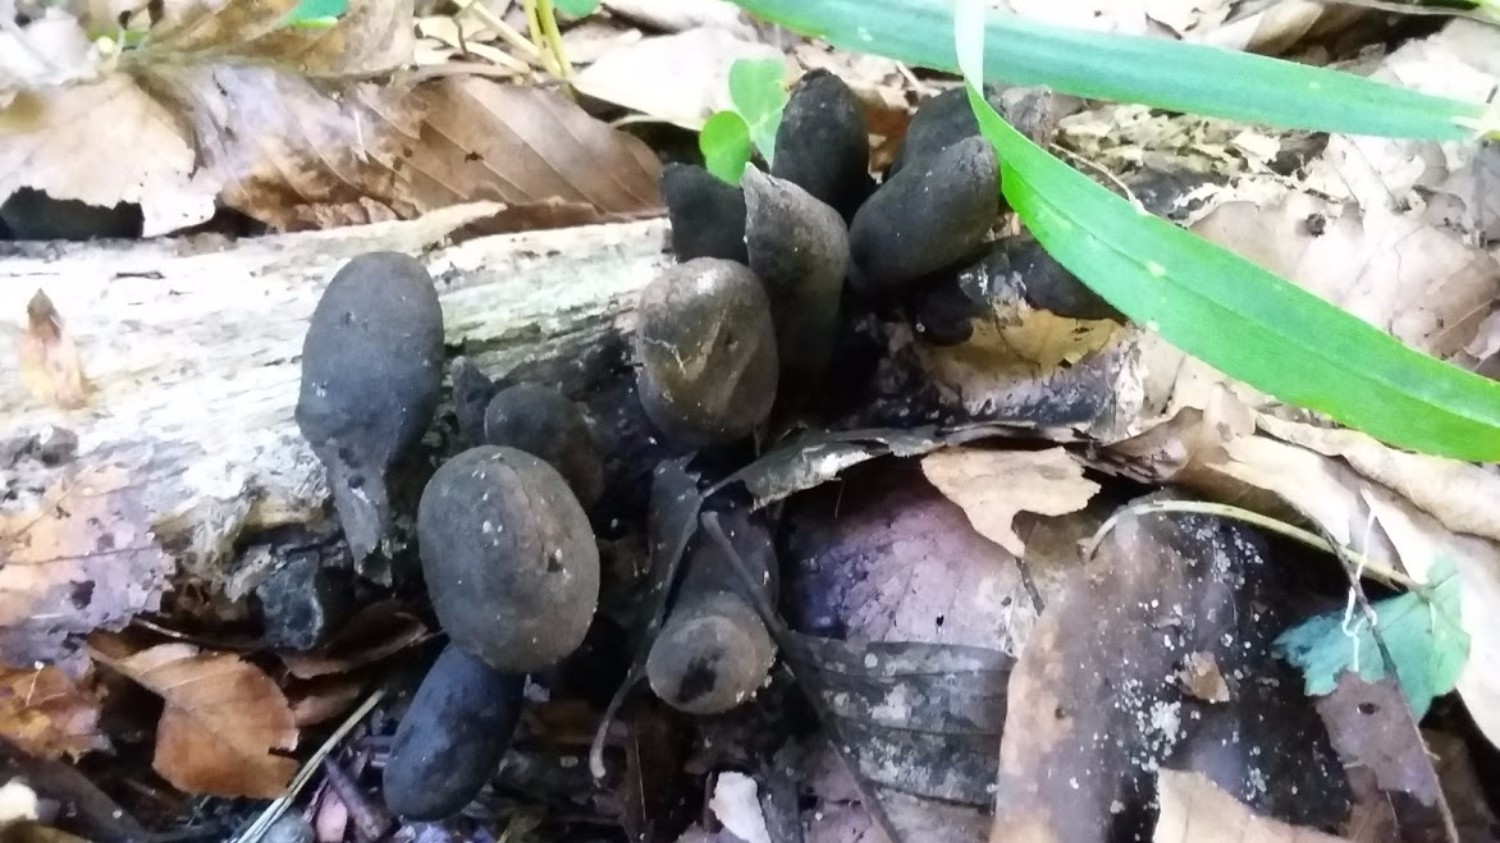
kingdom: Fungi
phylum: Ascomycota
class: Sordariomycetes
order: Xylariales
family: Xylariaceae
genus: Xylaria
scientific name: Xylaria polymorpha
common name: kølle-stødsvamp
